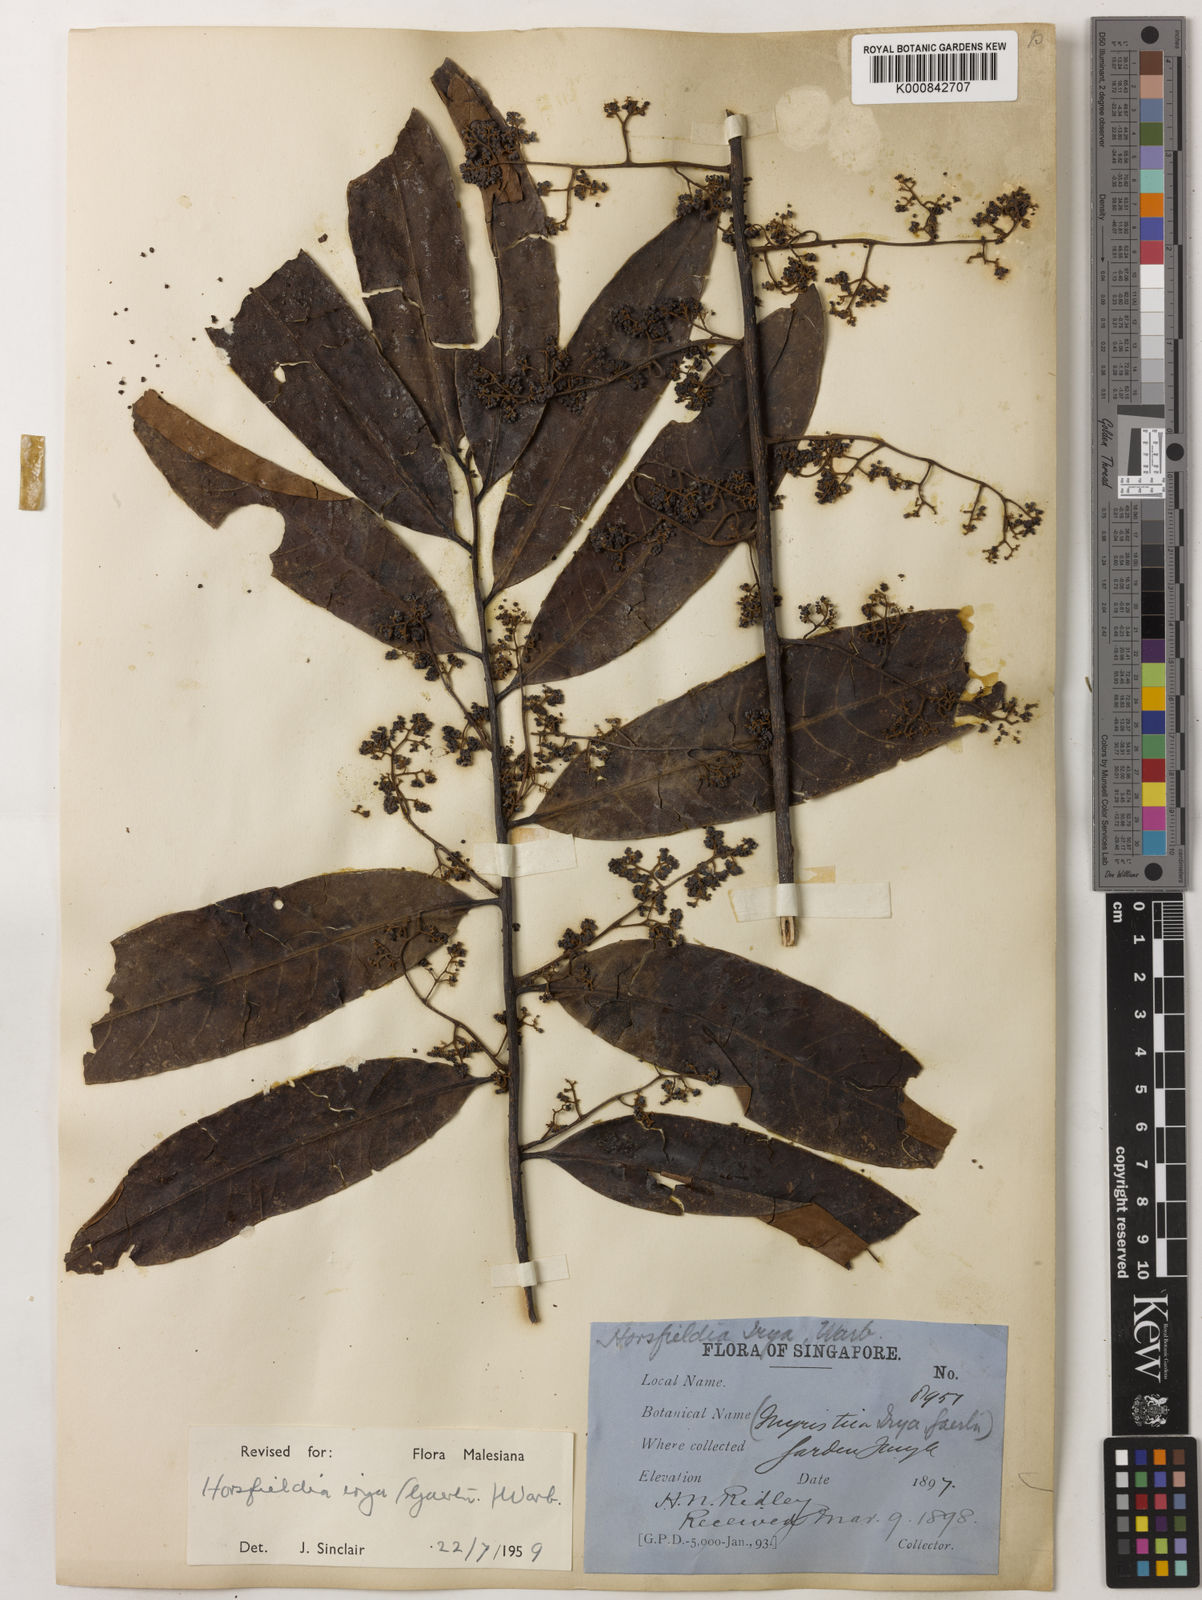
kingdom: Plantae
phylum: Tracheophyta
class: Magnoliopsida
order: Magnoliales
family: Myristicaceae
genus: Horsfieldia
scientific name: Horsfieldia irya
